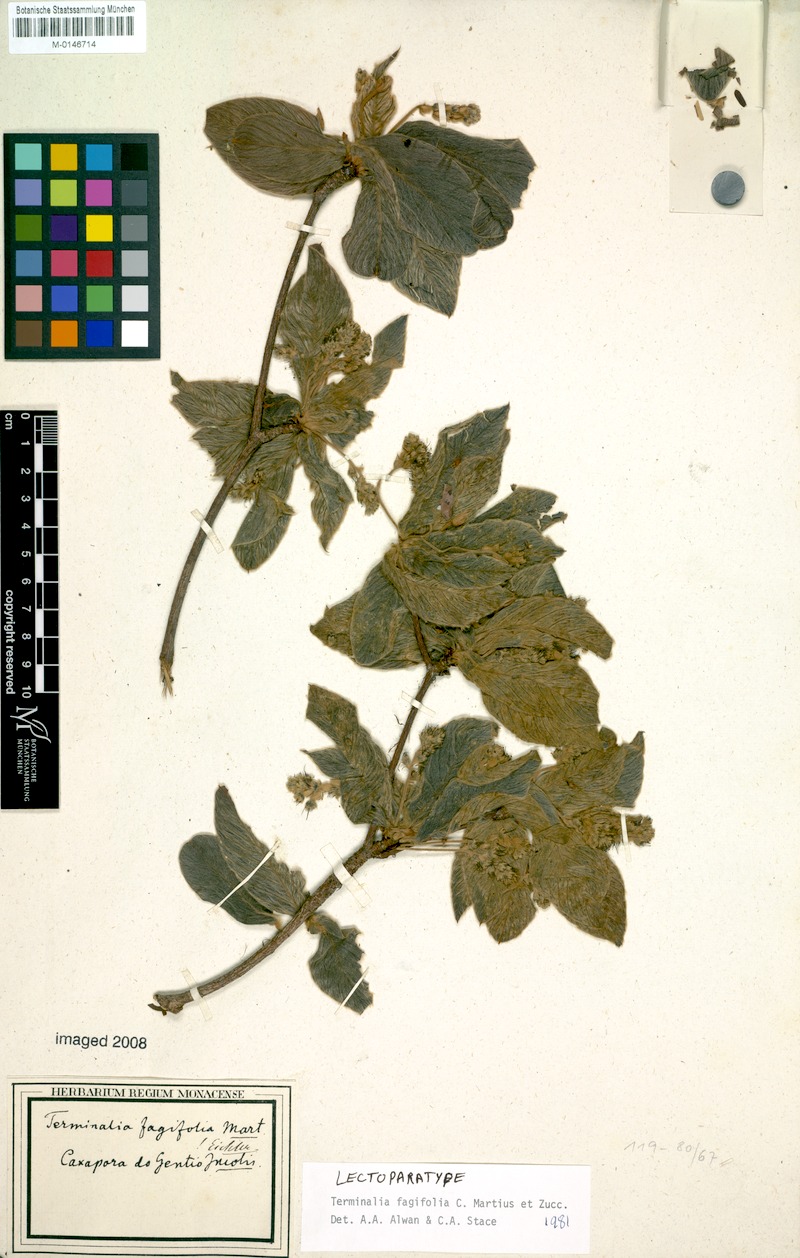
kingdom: Plantae
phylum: Tracheophyta
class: Magnoliopsida
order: Myrtales
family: Combretaceae
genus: Terminalia
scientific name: Terminalia fagifolia
